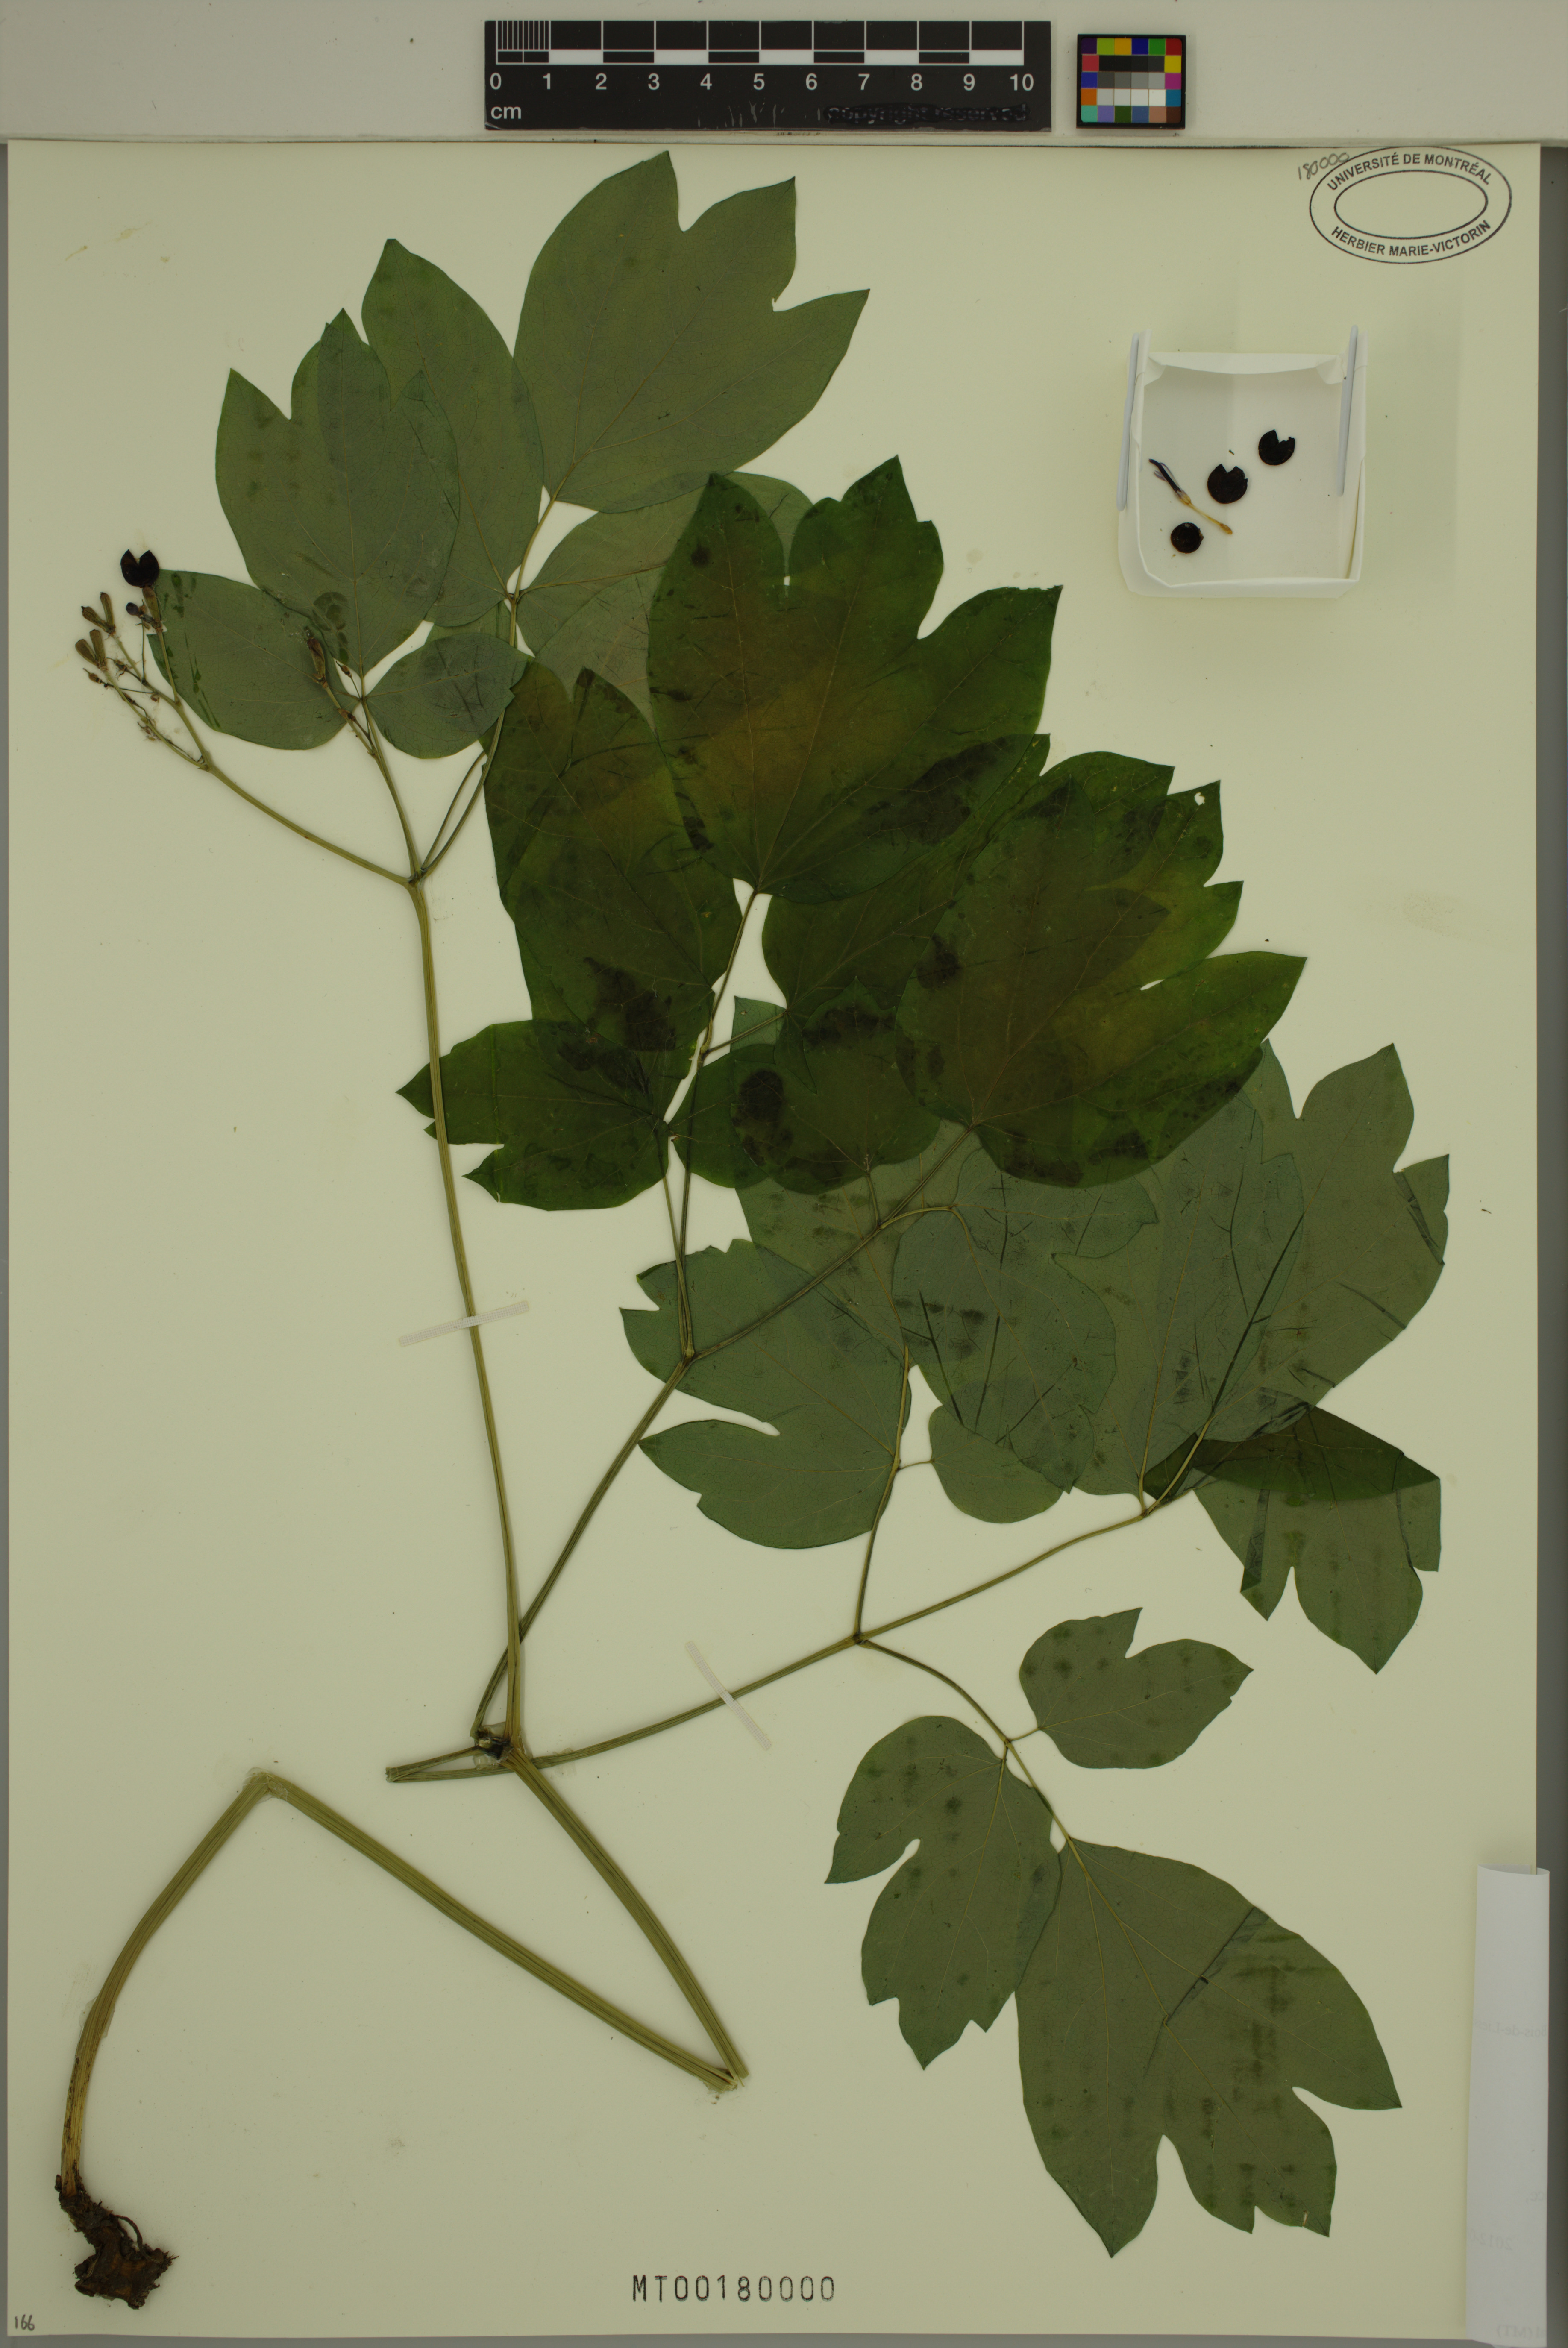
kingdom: Plantae
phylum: Tracheophyta
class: Magnoliopsida
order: Ranunculales
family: Berberidaceae
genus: Caulophyllum
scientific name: Caulophyllum thalictroides
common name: Blue cohosh
